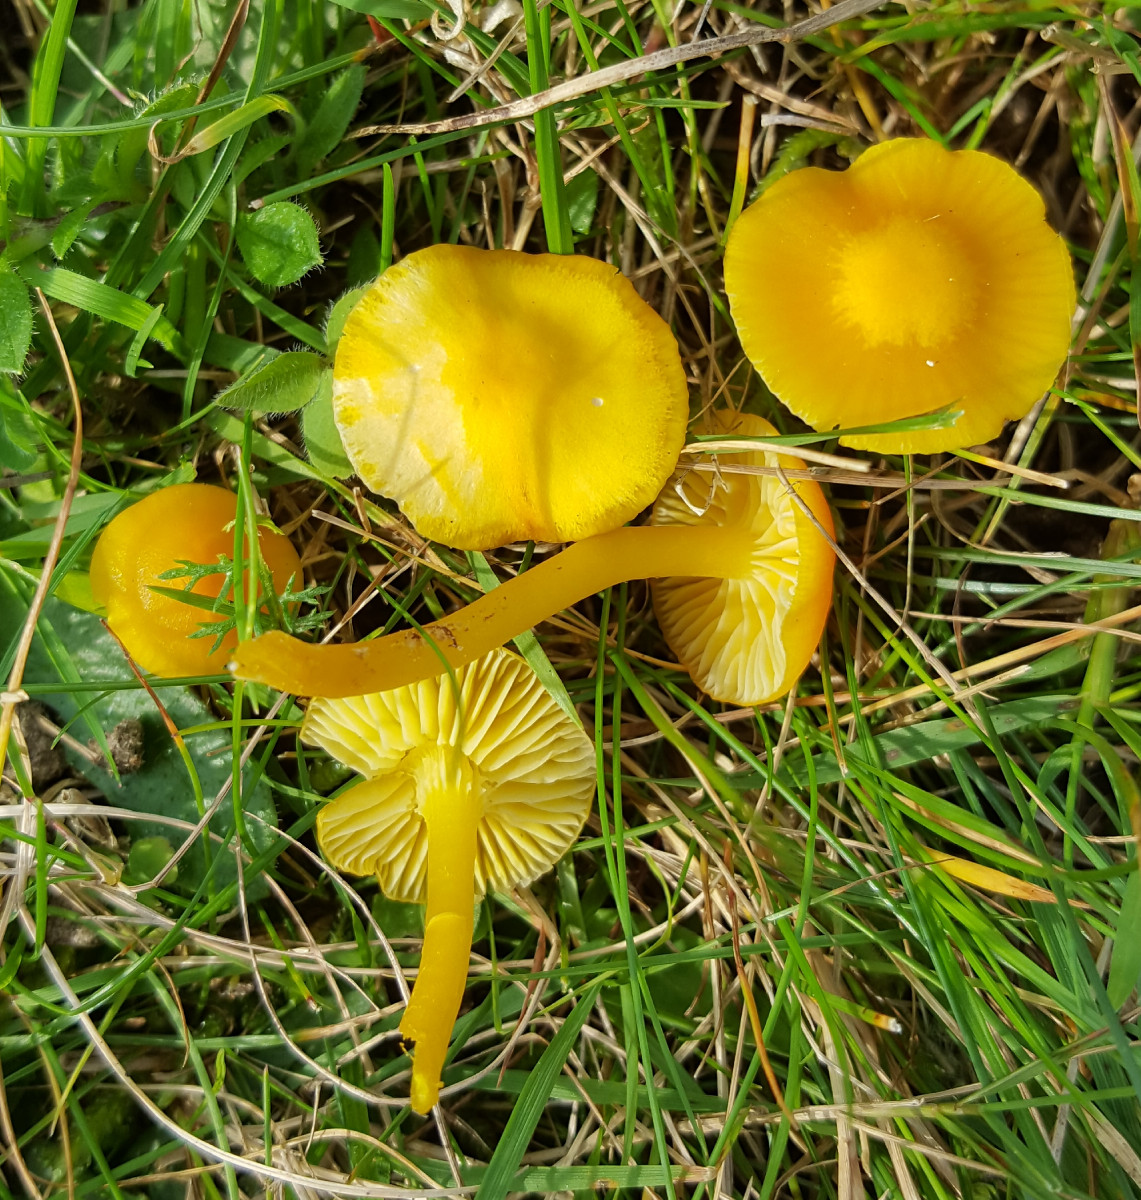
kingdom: Fungi
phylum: Basidiomycota
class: Agaricomycetes
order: Agaricales
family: Hygrophoraceae
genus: Hygrocybe
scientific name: Hygrocybe ceracea
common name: voksgul vokshat
